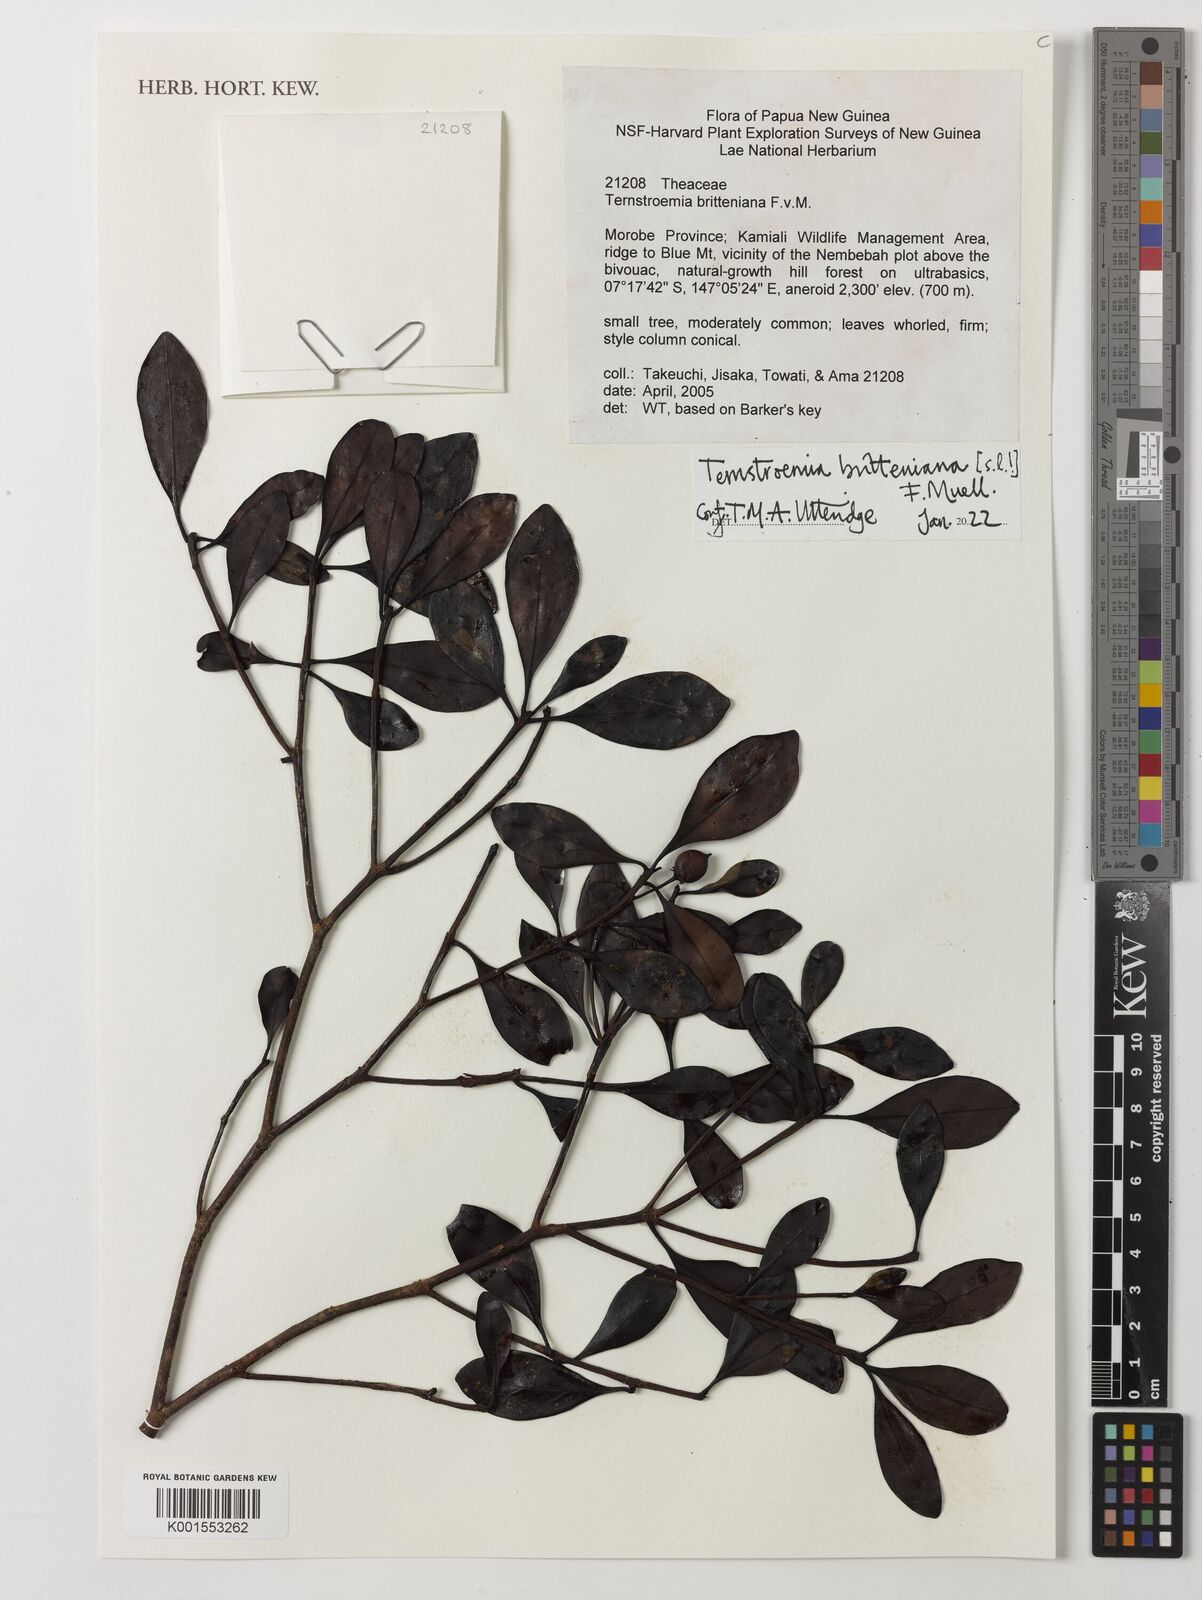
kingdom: Plantae
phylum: Tracheophyta
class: Magnoliopsida
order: Ericales
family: Pentaphylacaceae
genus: Ternstroemia
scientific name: Ternstroemia britteniana
